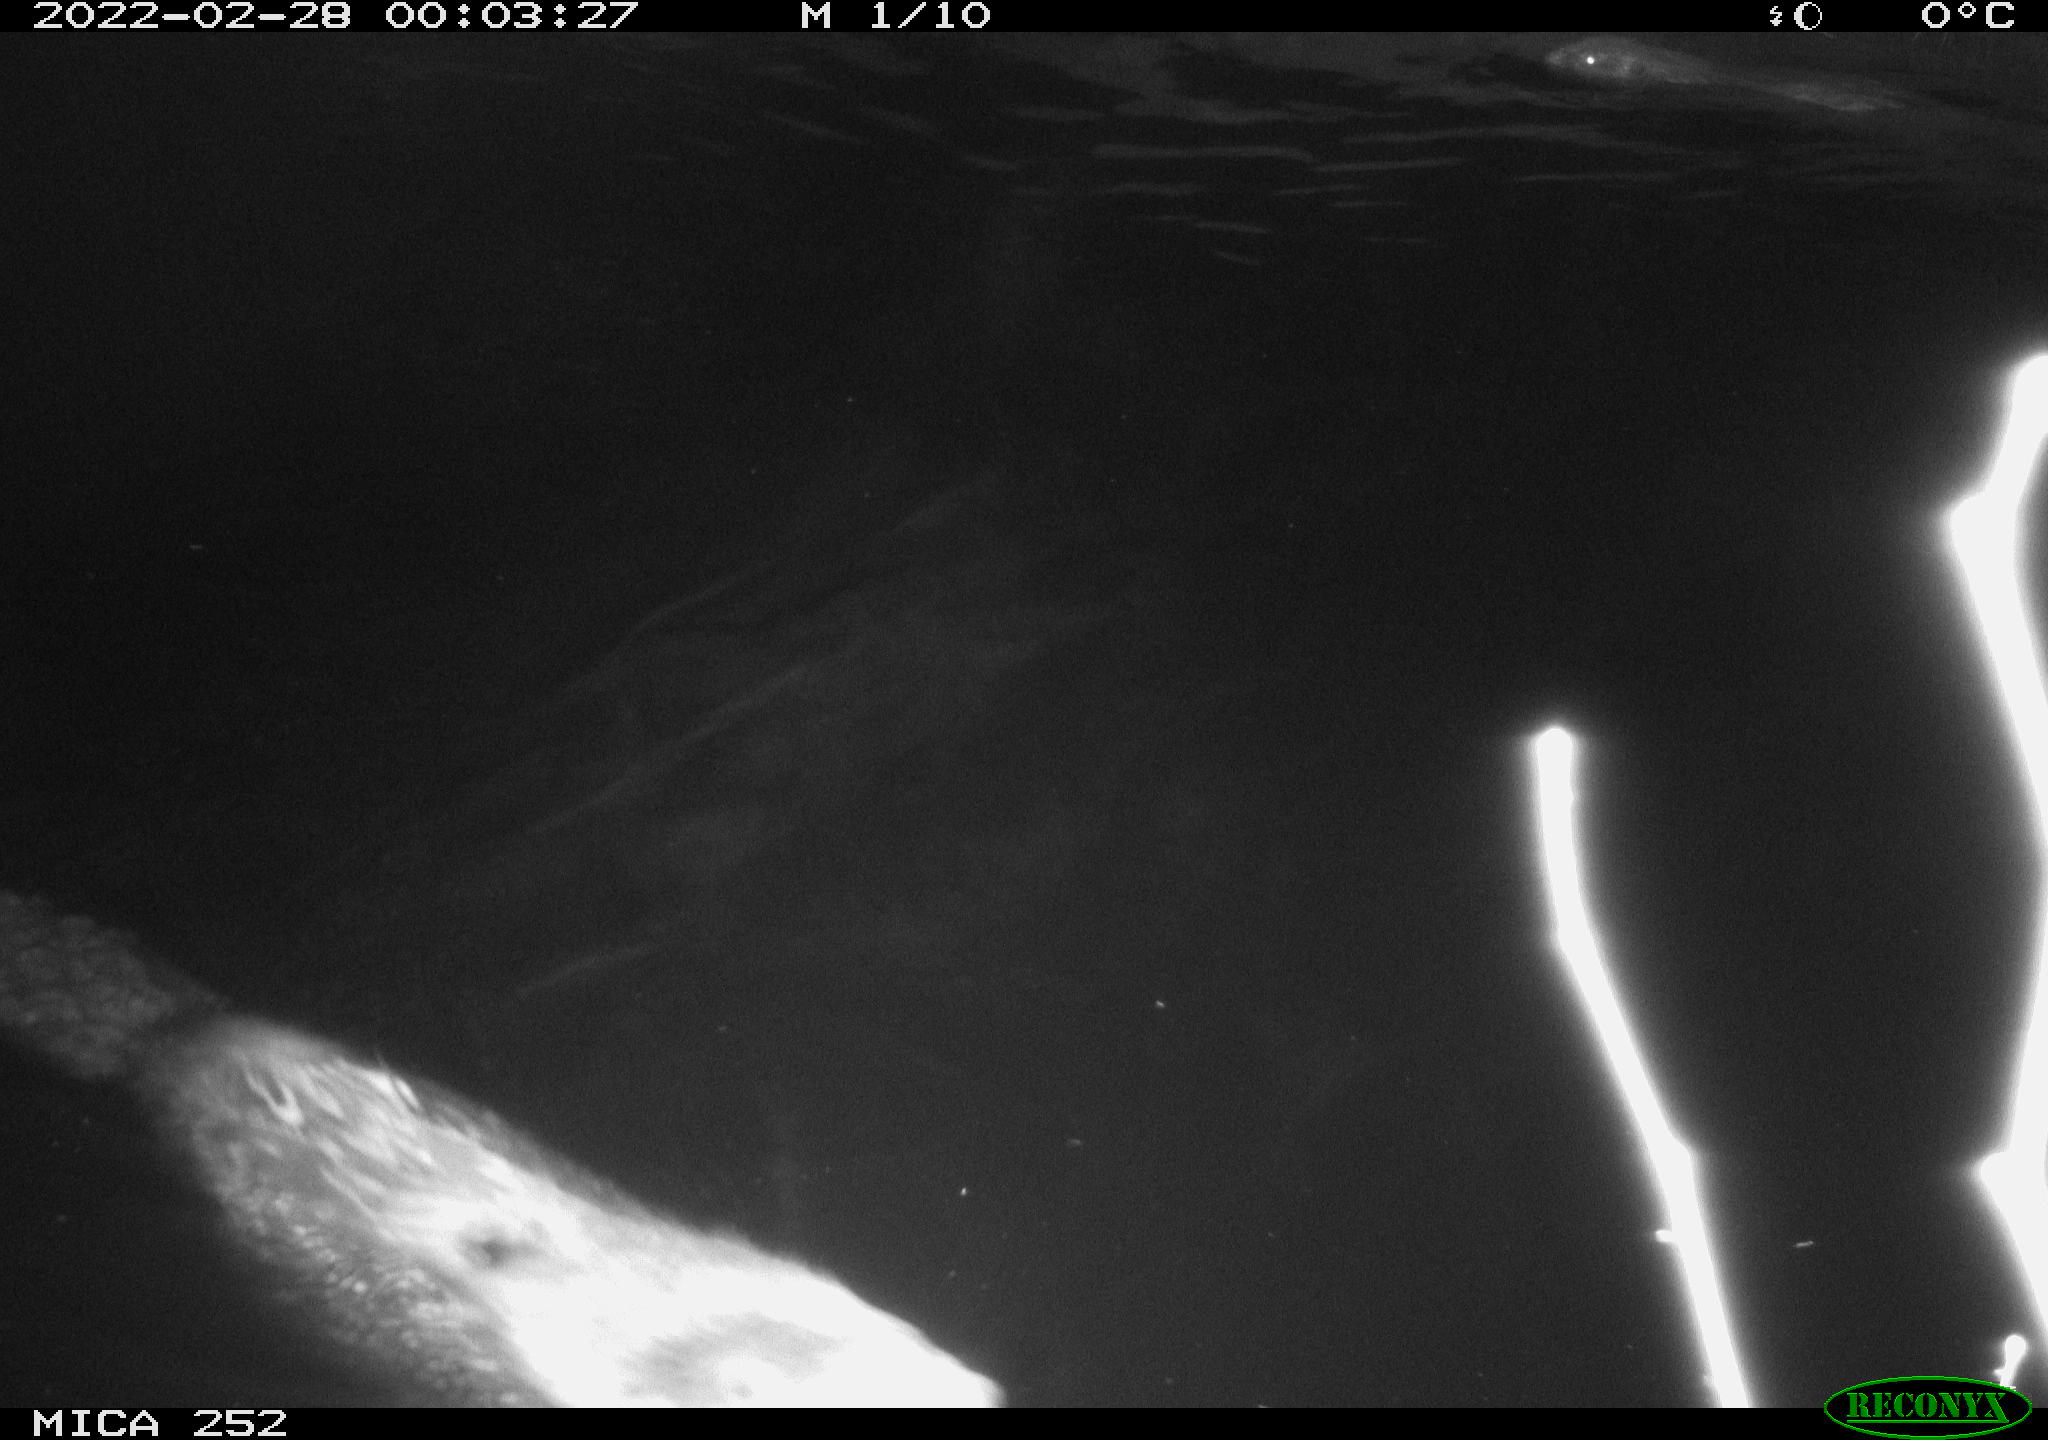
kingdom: Animalia
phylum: Chordata
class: Mammalia
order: Rodentia
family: Castoridae
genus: Castor
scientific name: Castor fiber
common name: Eurasian beaver
